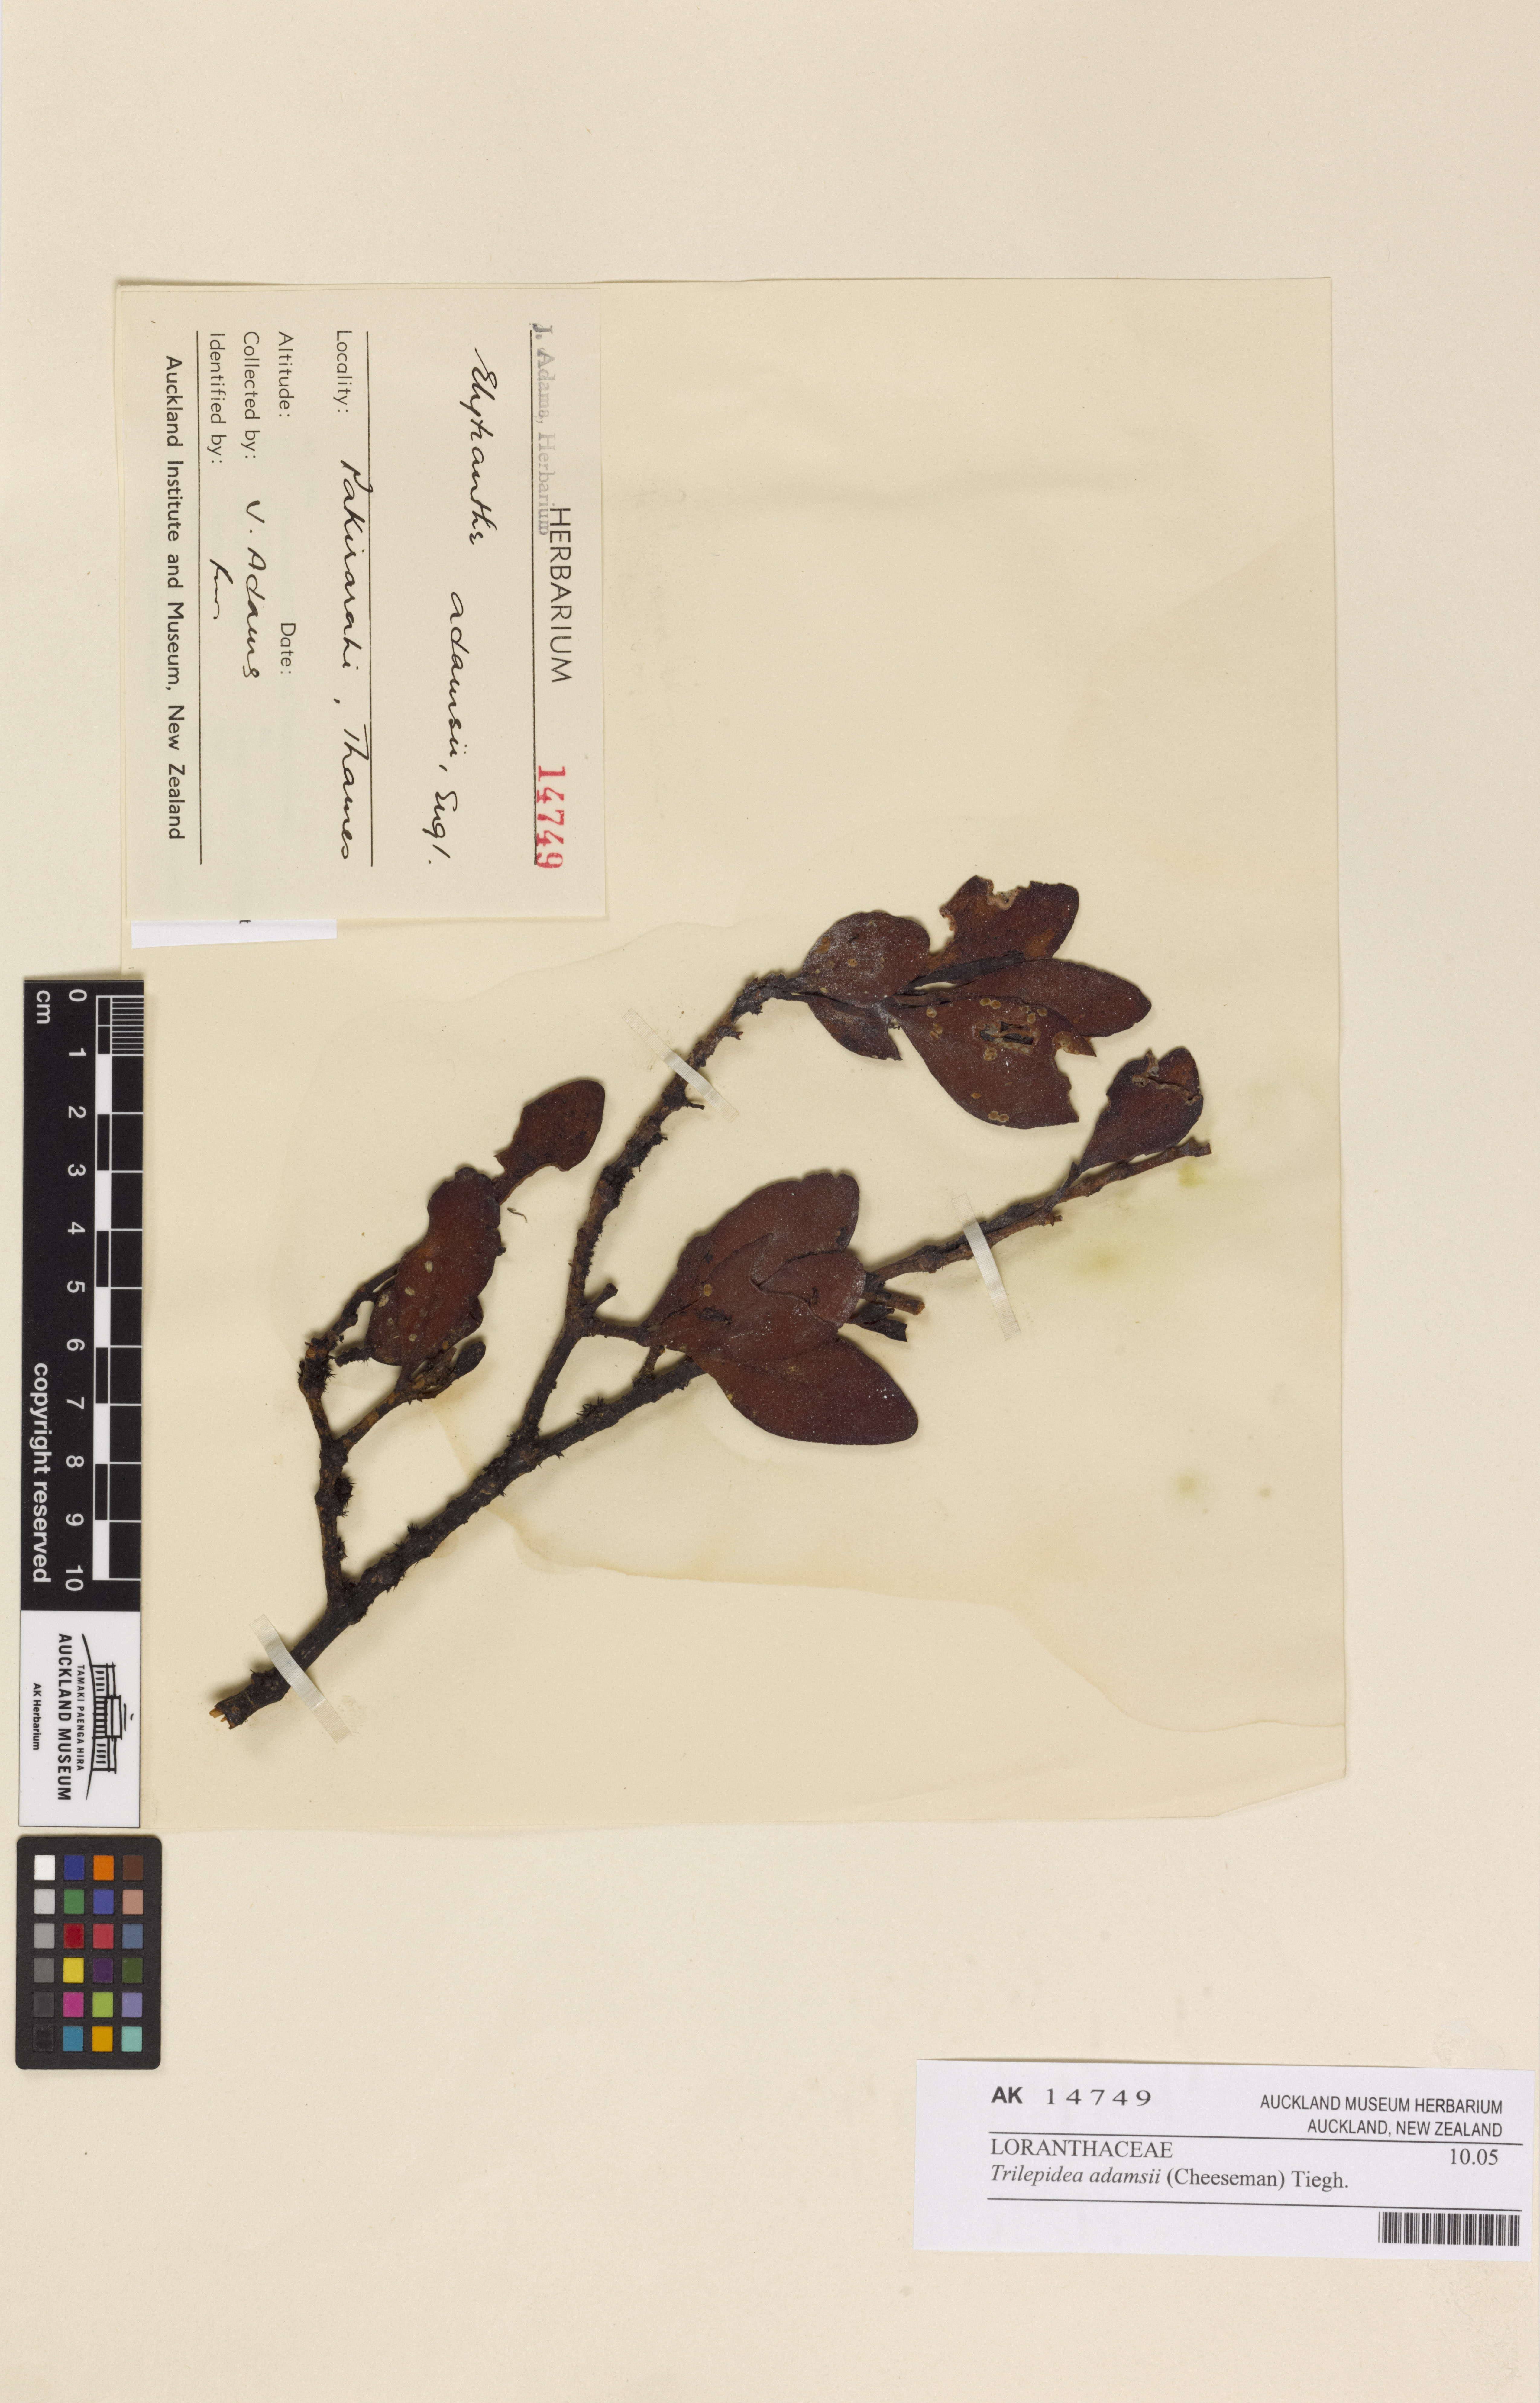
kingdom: Plantae
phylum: Tracheophyta
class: Magnoliopsida
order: Santalales
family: Loranthaceae
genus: Trilepidea
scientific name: Trilepidea adamsii
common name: Adams mistletoe
